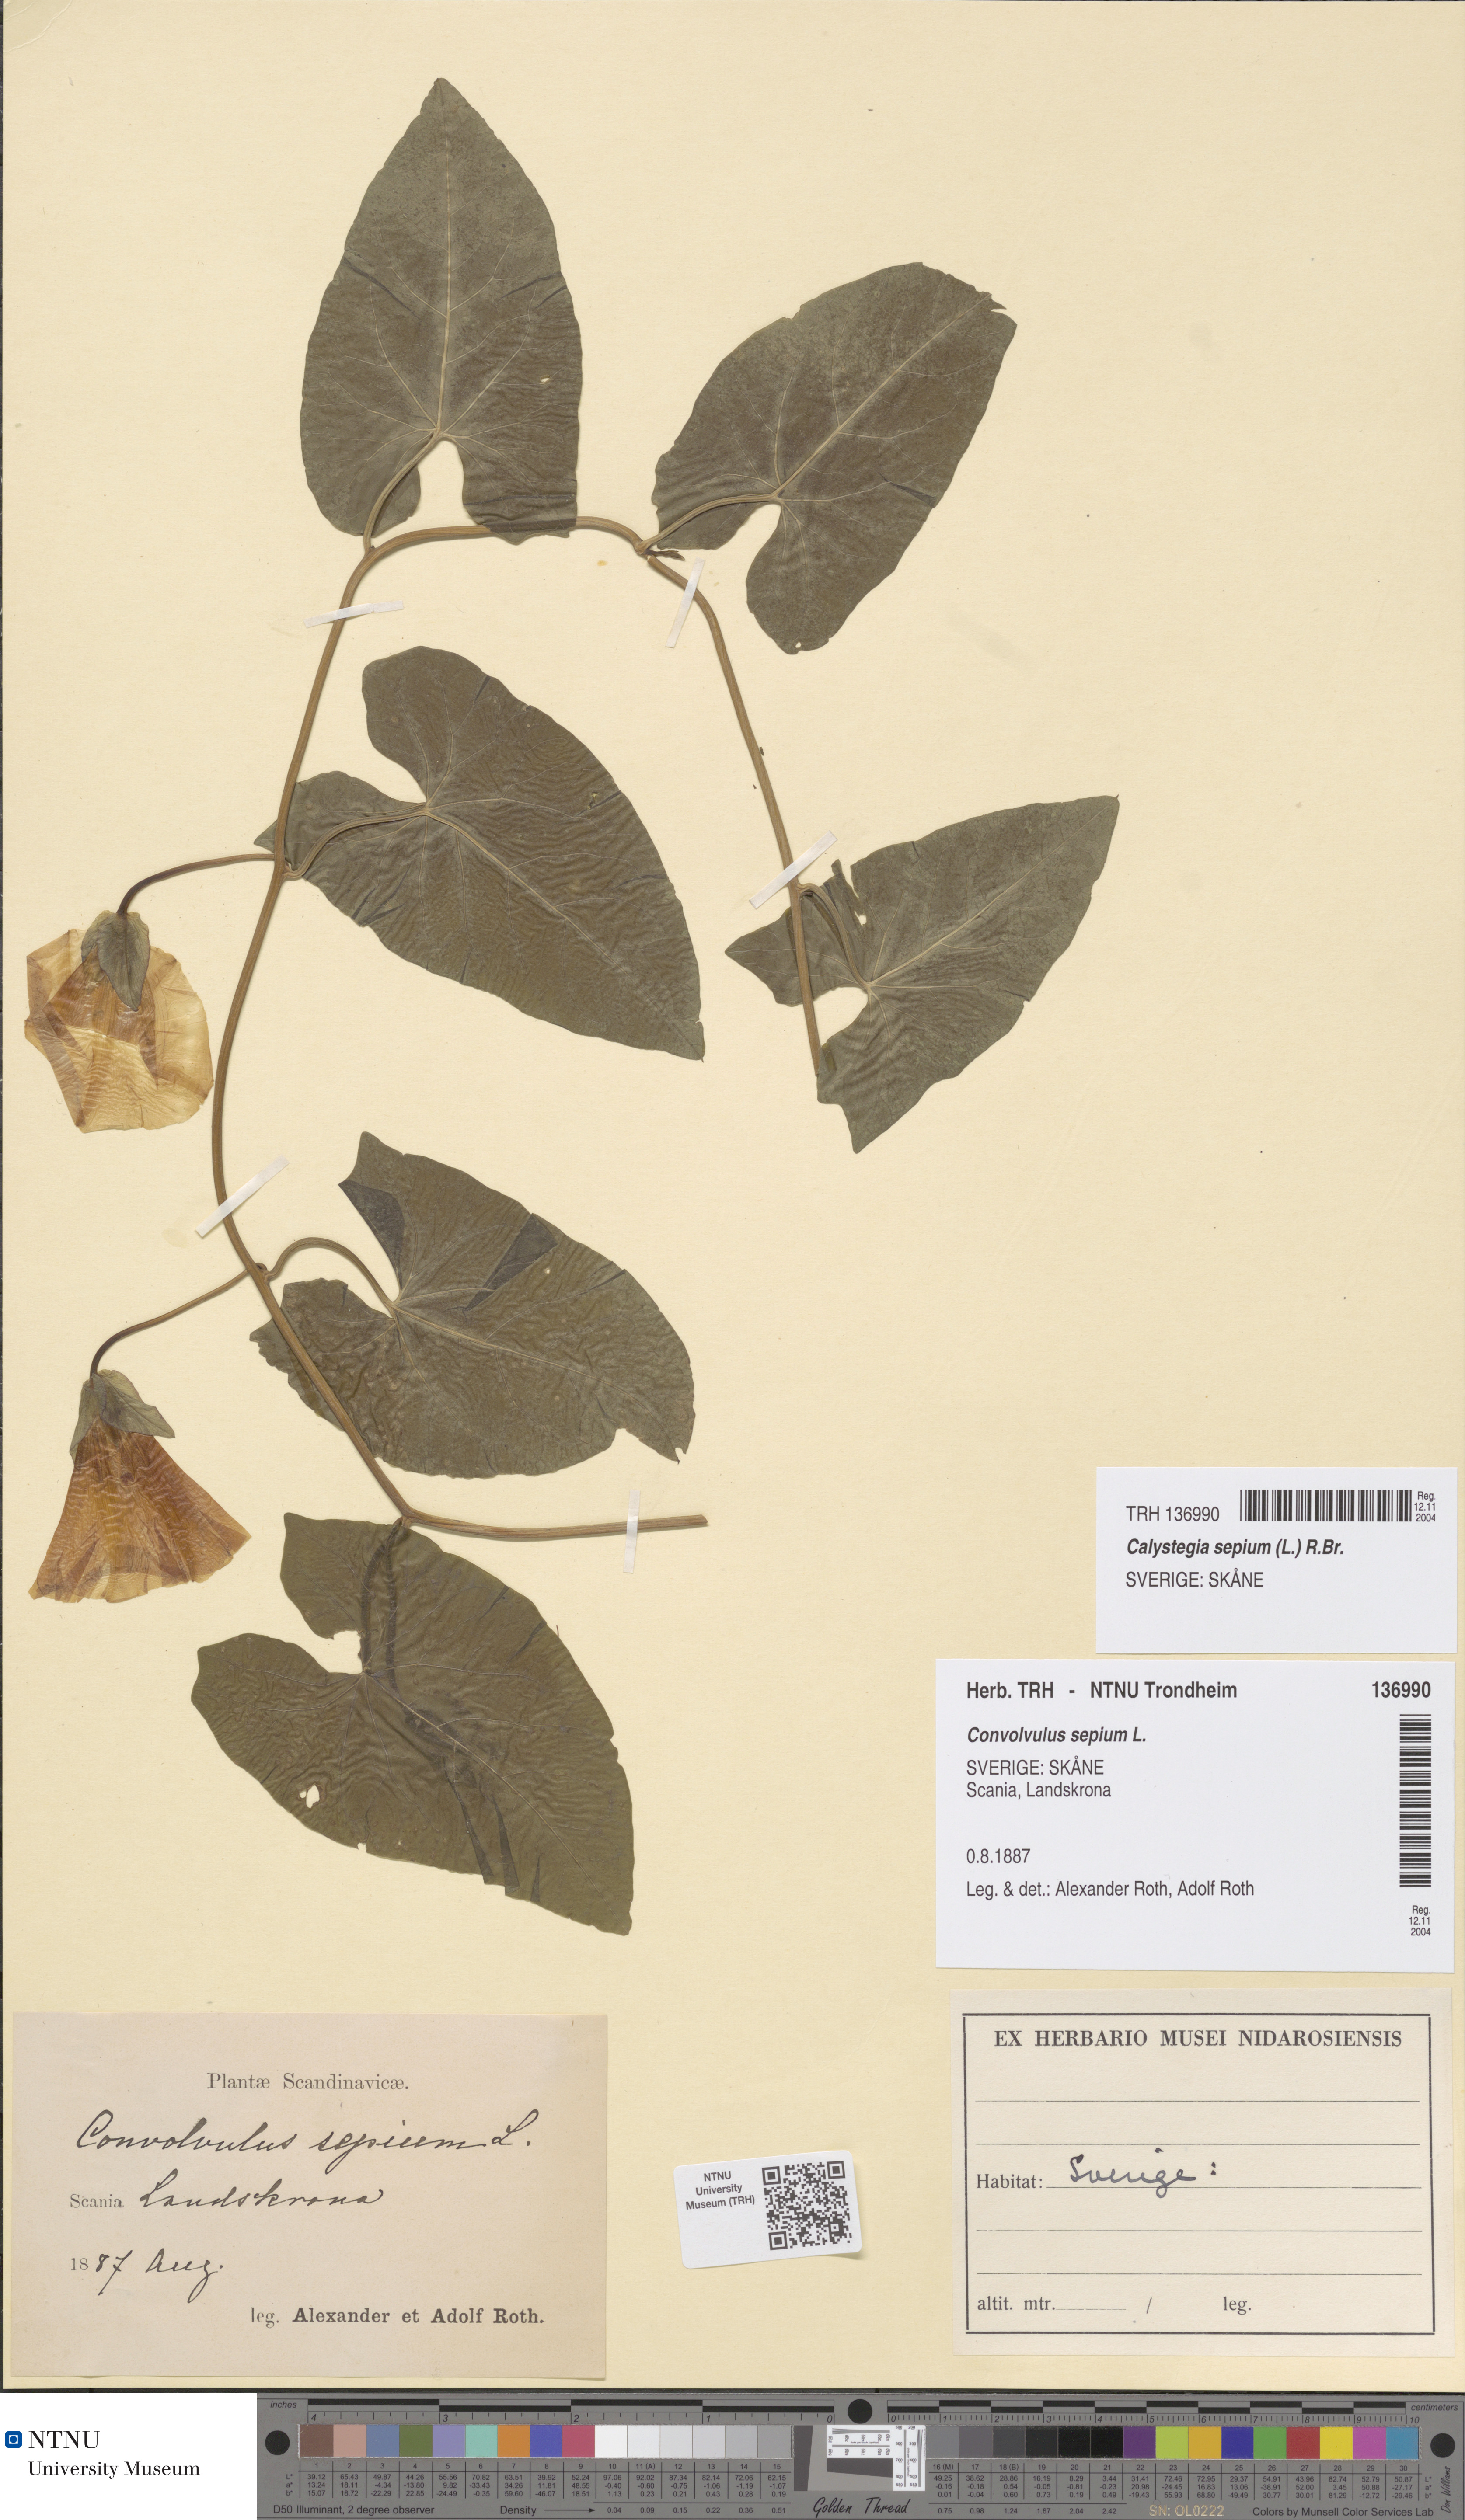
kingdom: Plantae
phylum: Tracheophyta
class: Magnoliopsida
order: Solanales
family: Convolvulaceae
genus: Calystegia
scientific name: Calystegia sepium
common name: Hedge bindweed
